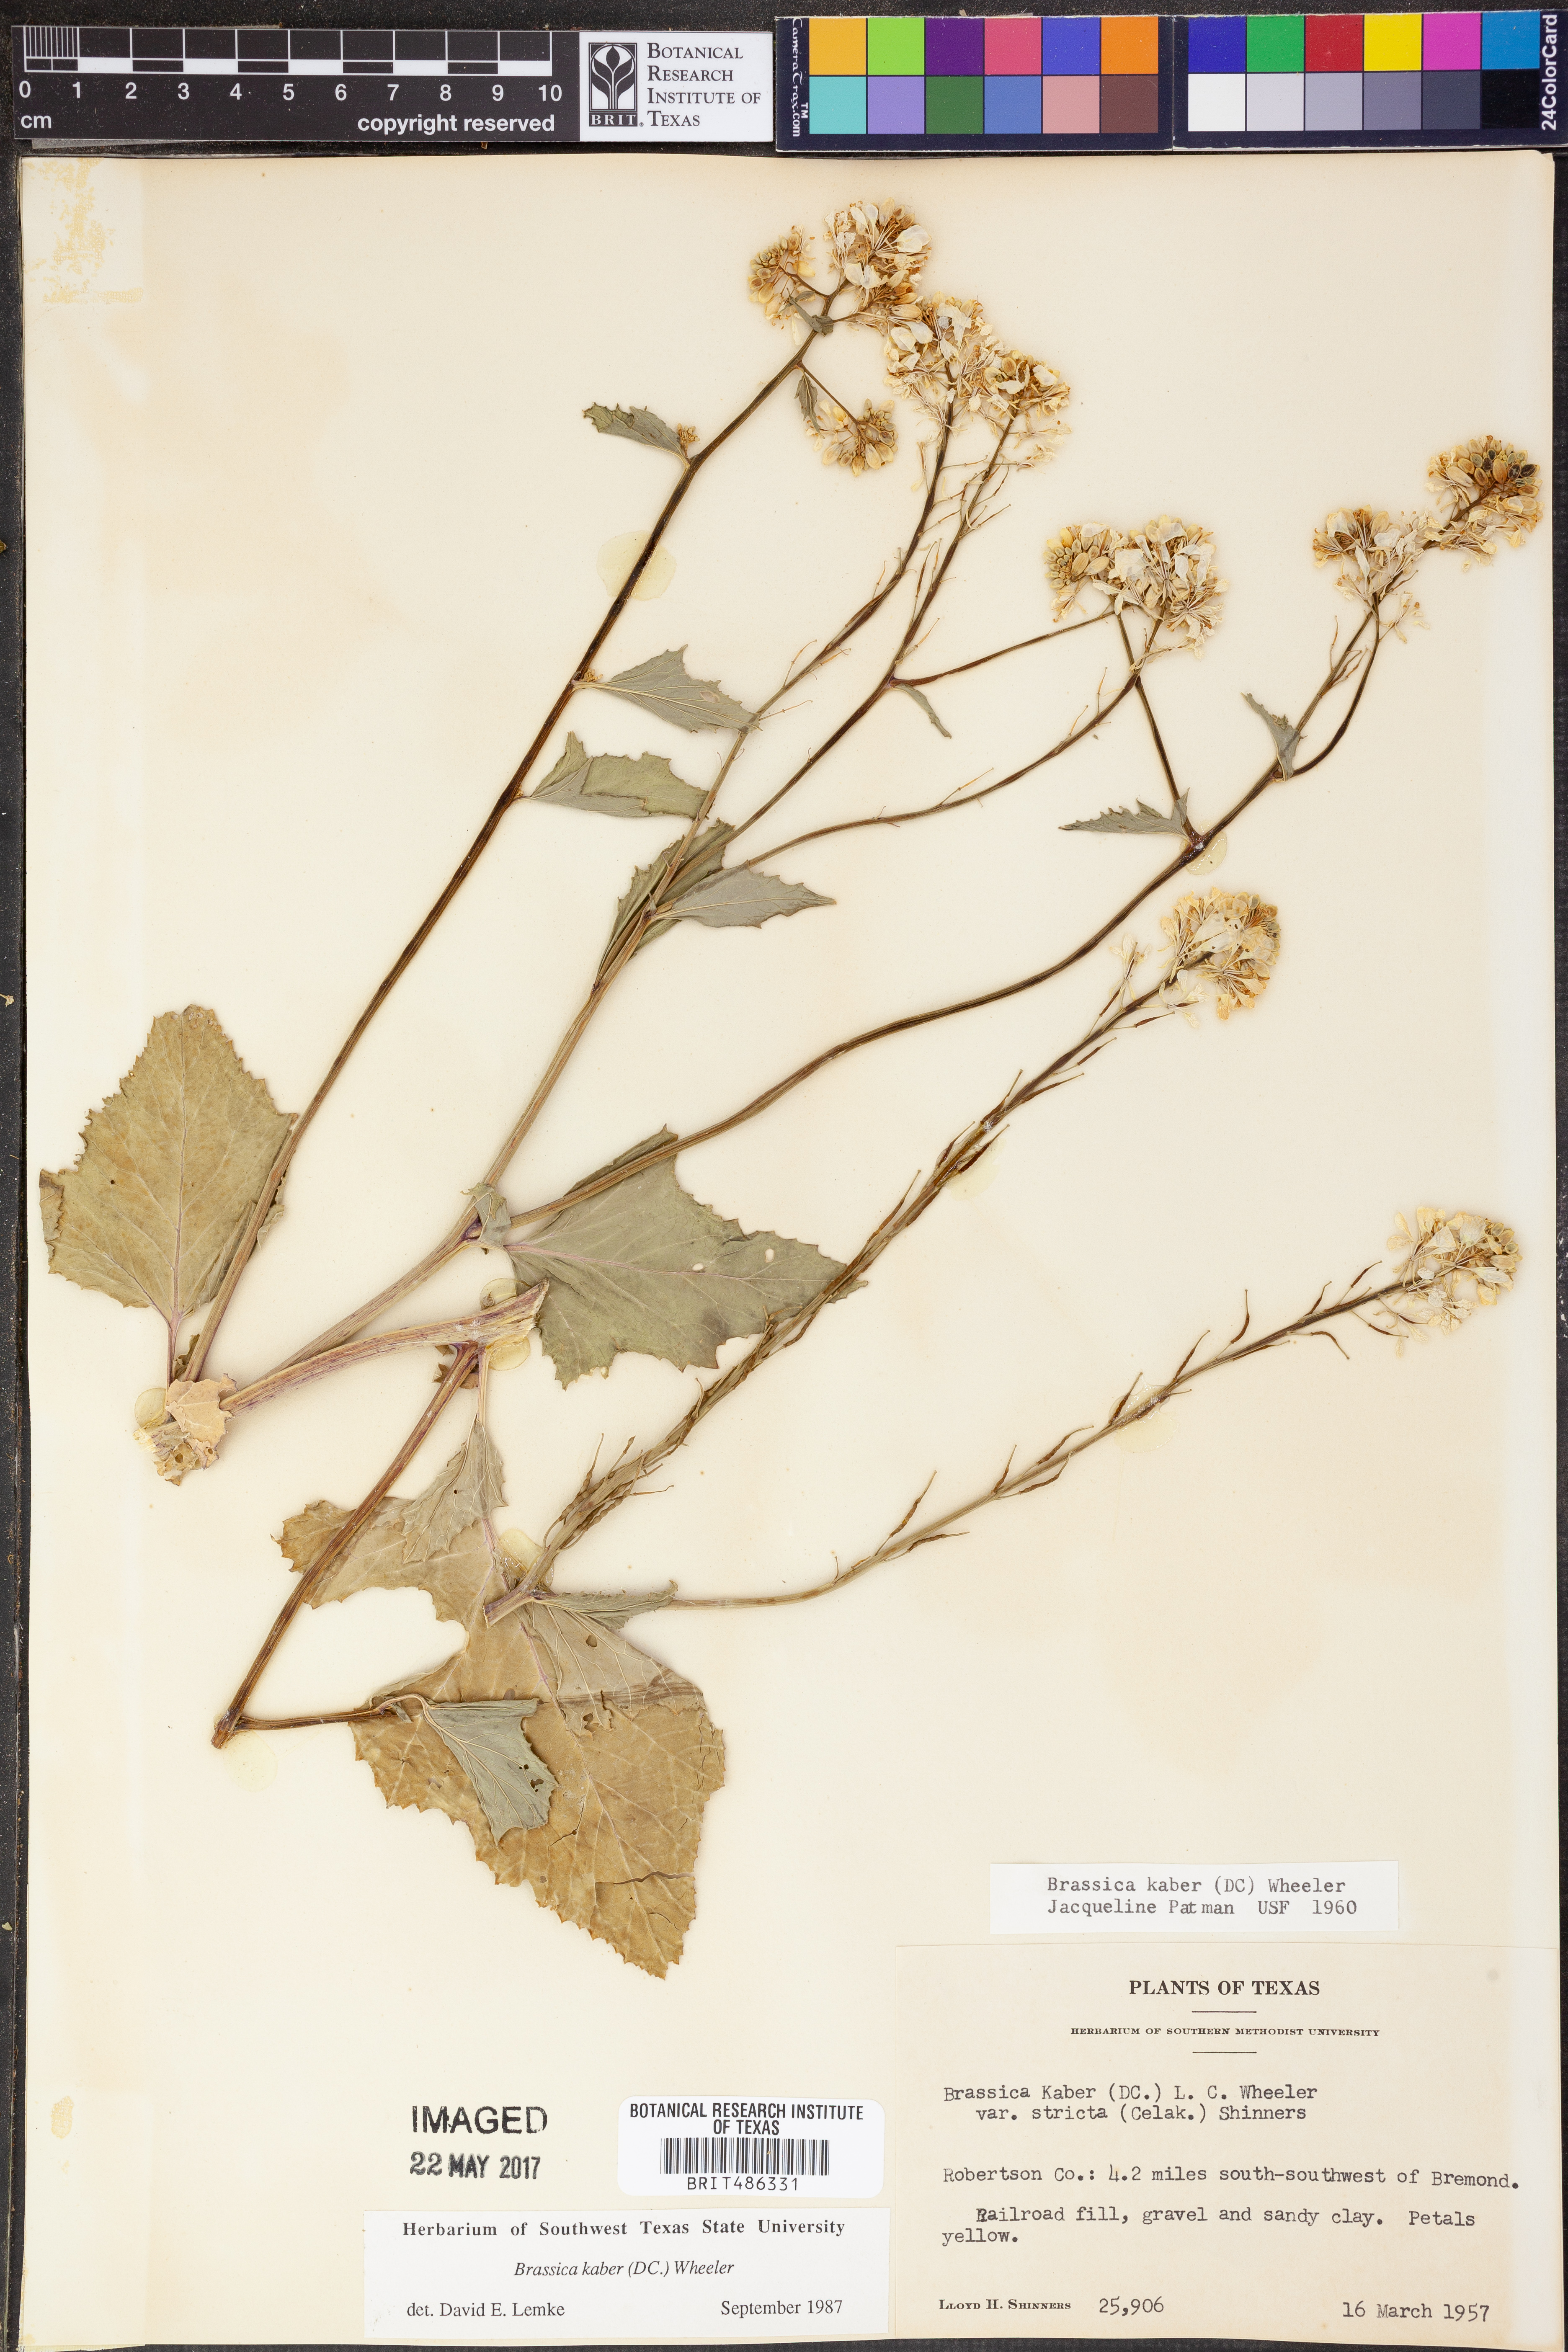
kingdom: Plantae
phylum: Tracheophyta
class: Magnoliopsida
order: Brassicales
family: Brassicaceae
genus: Sinapis
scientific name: Sinapis arvensis
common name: Charlock
